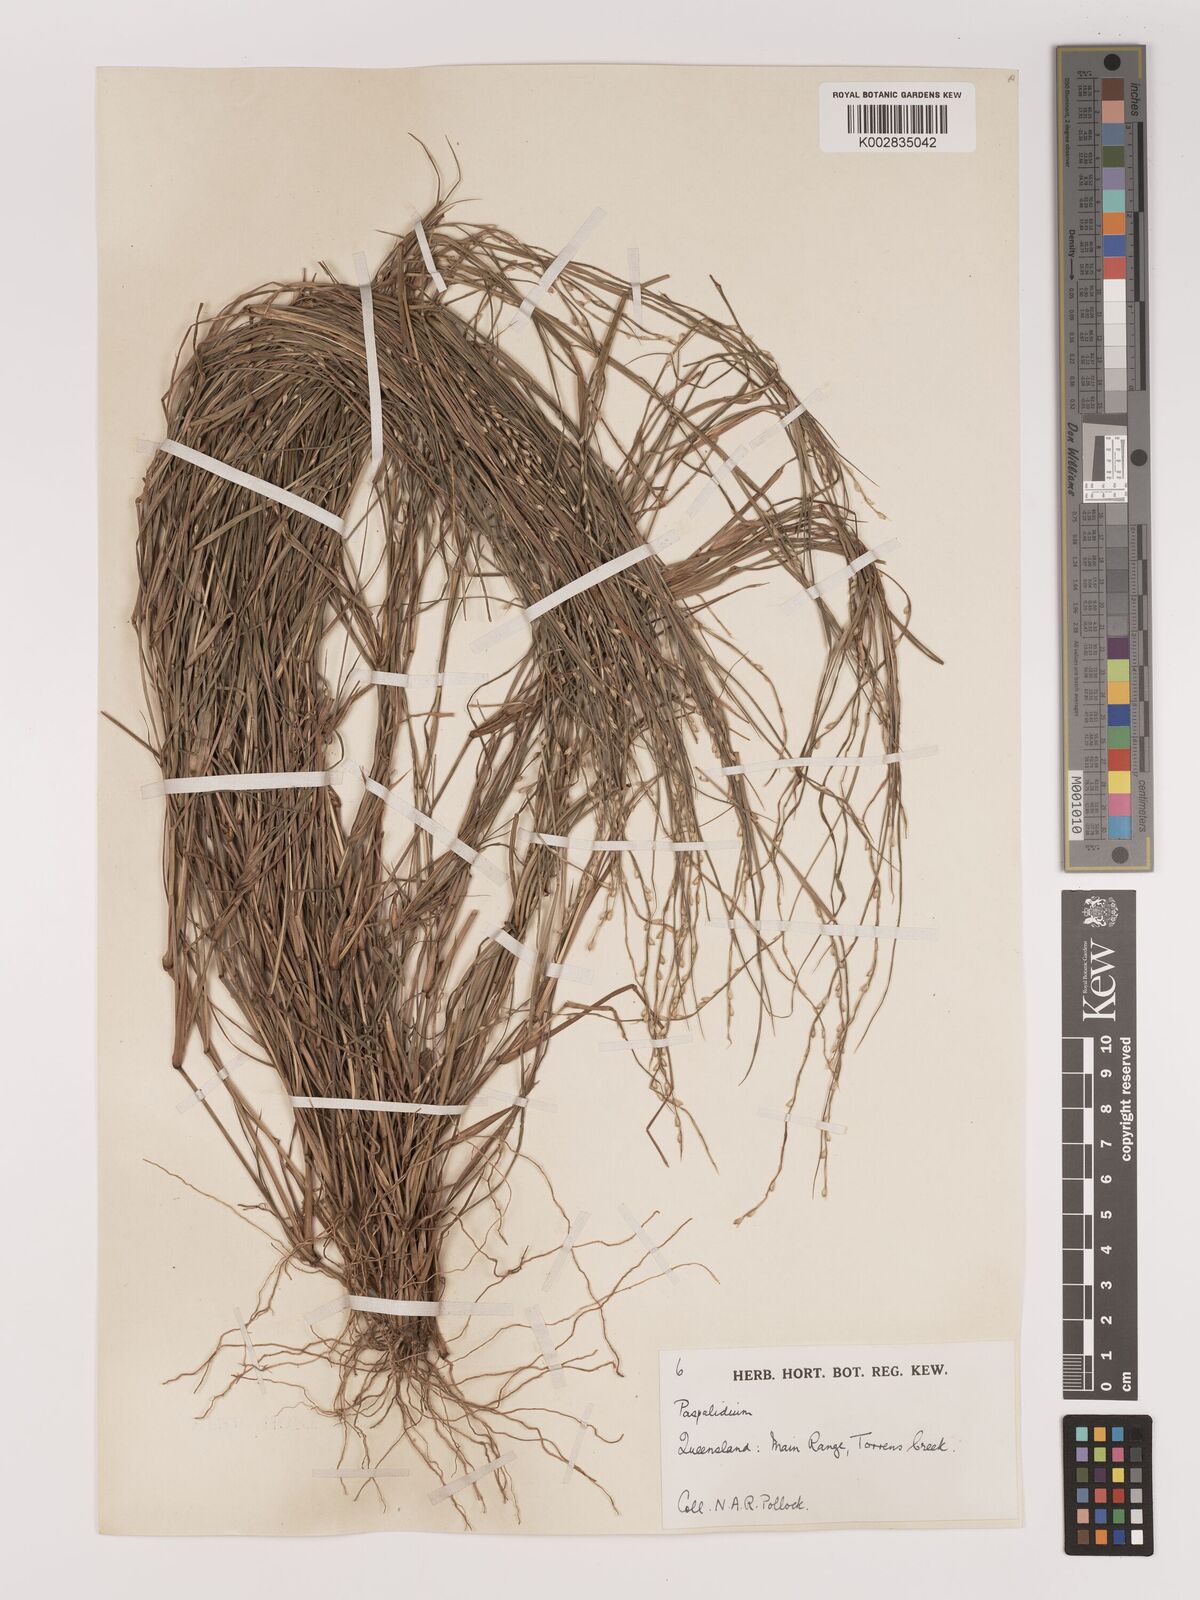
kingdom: Plantae
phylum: Tracheophyta
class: Liliopsida
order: Poales
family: Poaceae
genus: Setaria
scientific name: Setaria
